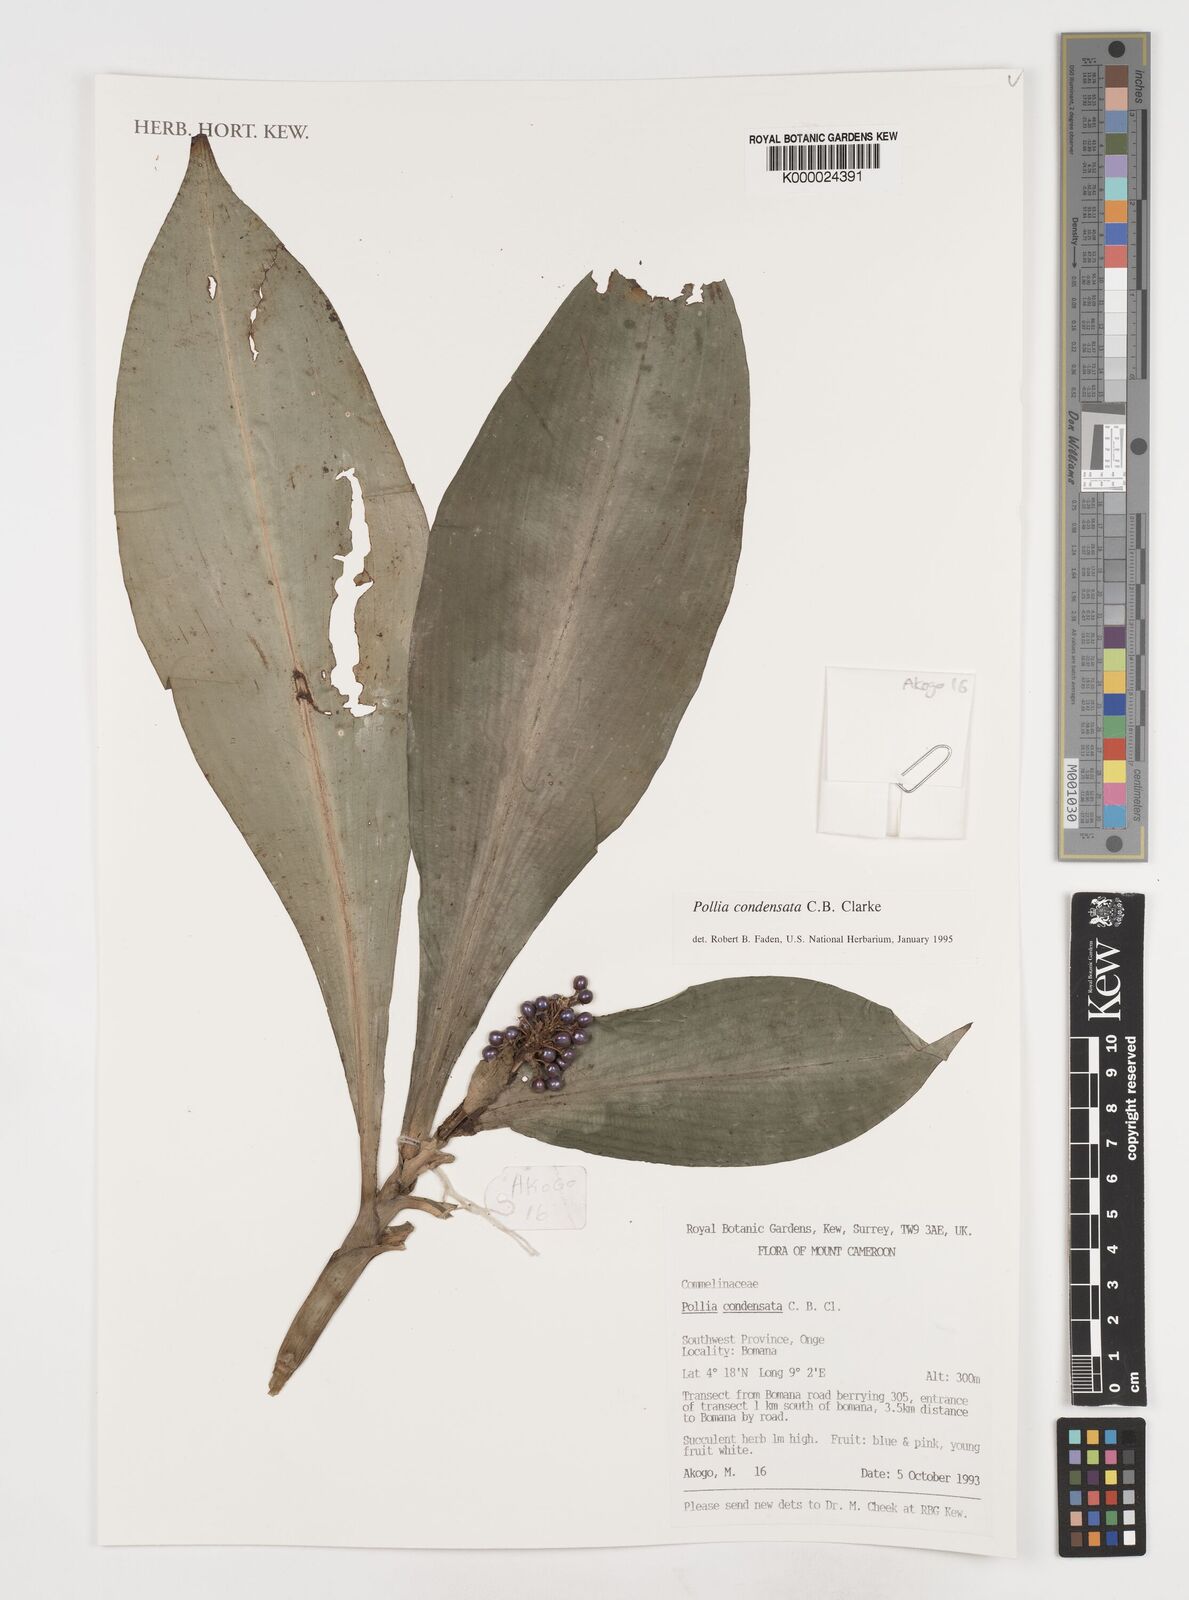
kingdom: Plantae
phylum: Tracheophyta
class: Liliopsida
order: Commelinales
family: Commelinaceae
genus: Pollia
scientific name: Pollia condensata
